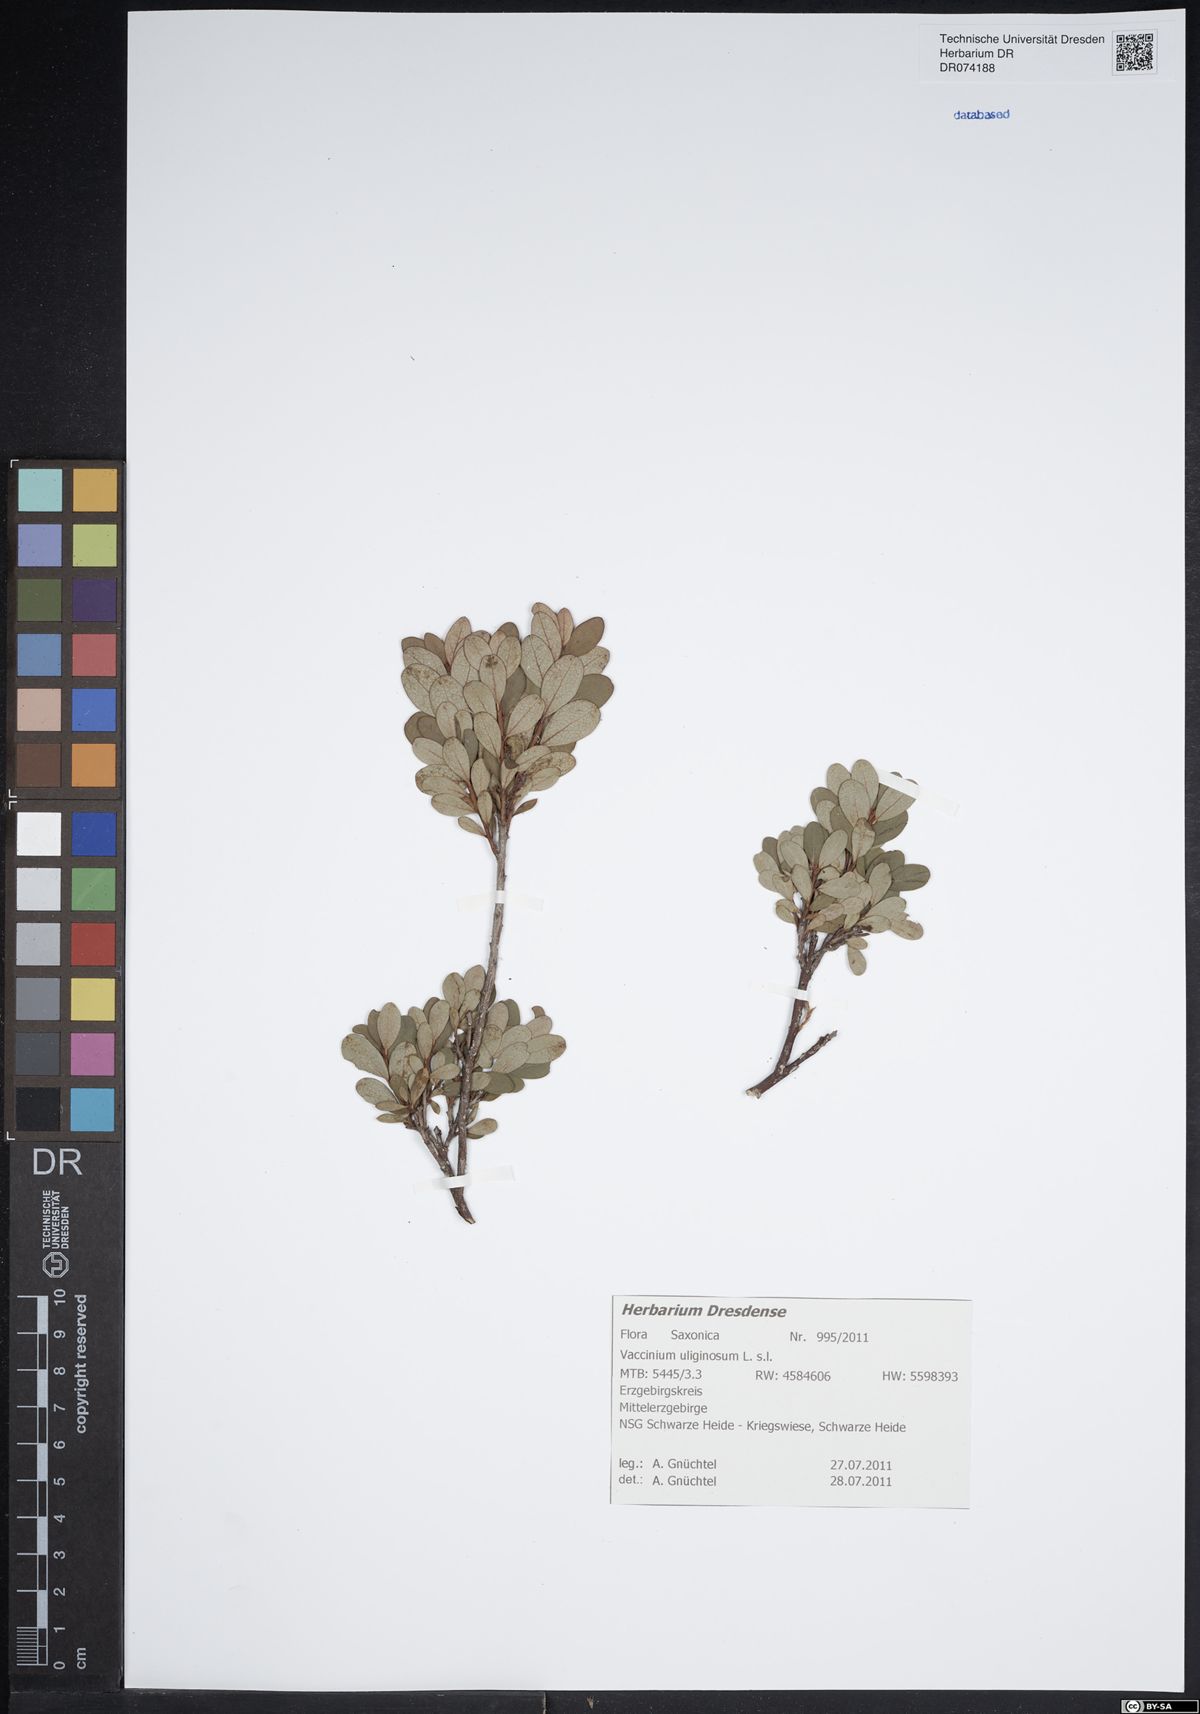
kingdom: Plantae
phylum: Tracheophyta
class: Magnoliopsida
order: Ericales
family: Ericaceae
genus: Vaccinium
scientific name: Vaccinium uliginosum
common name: Bog bilberry
